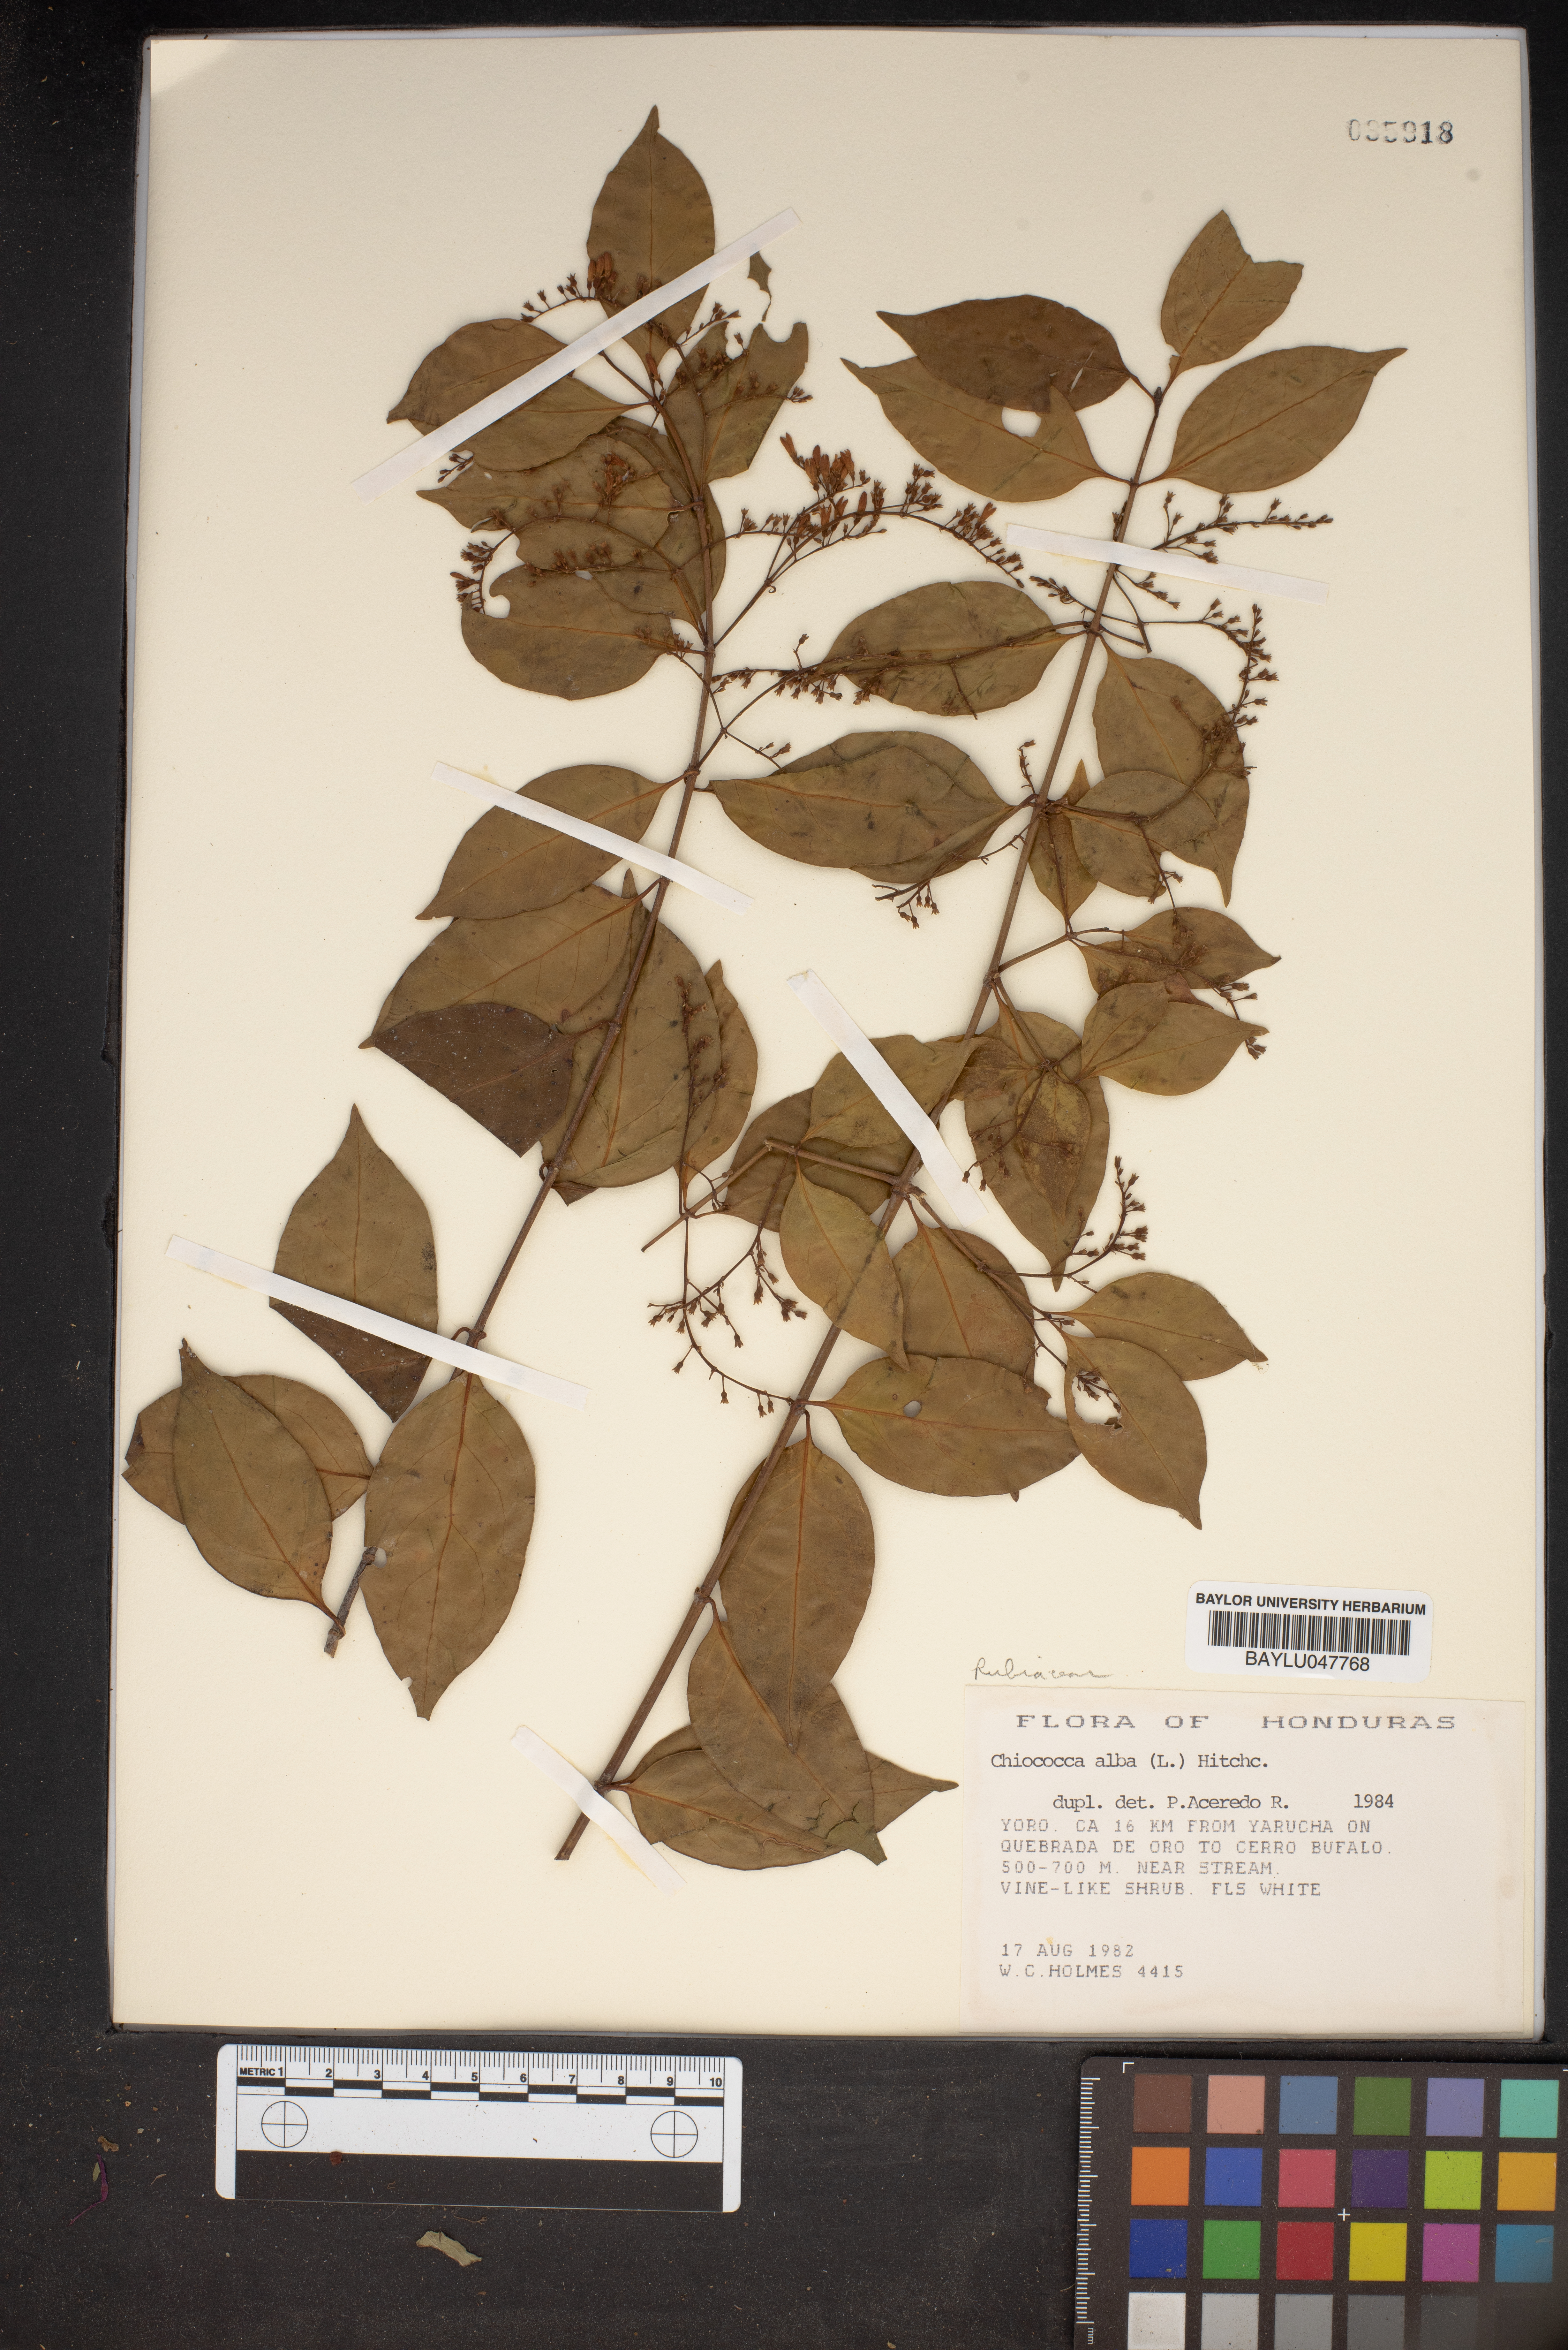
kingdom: Plantae
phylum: Tracheophyta
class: Magnoliopsida
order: Gentianales
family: Rubiaceae
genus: Chiococca
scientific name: Chiococca alba
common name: Snowberry
